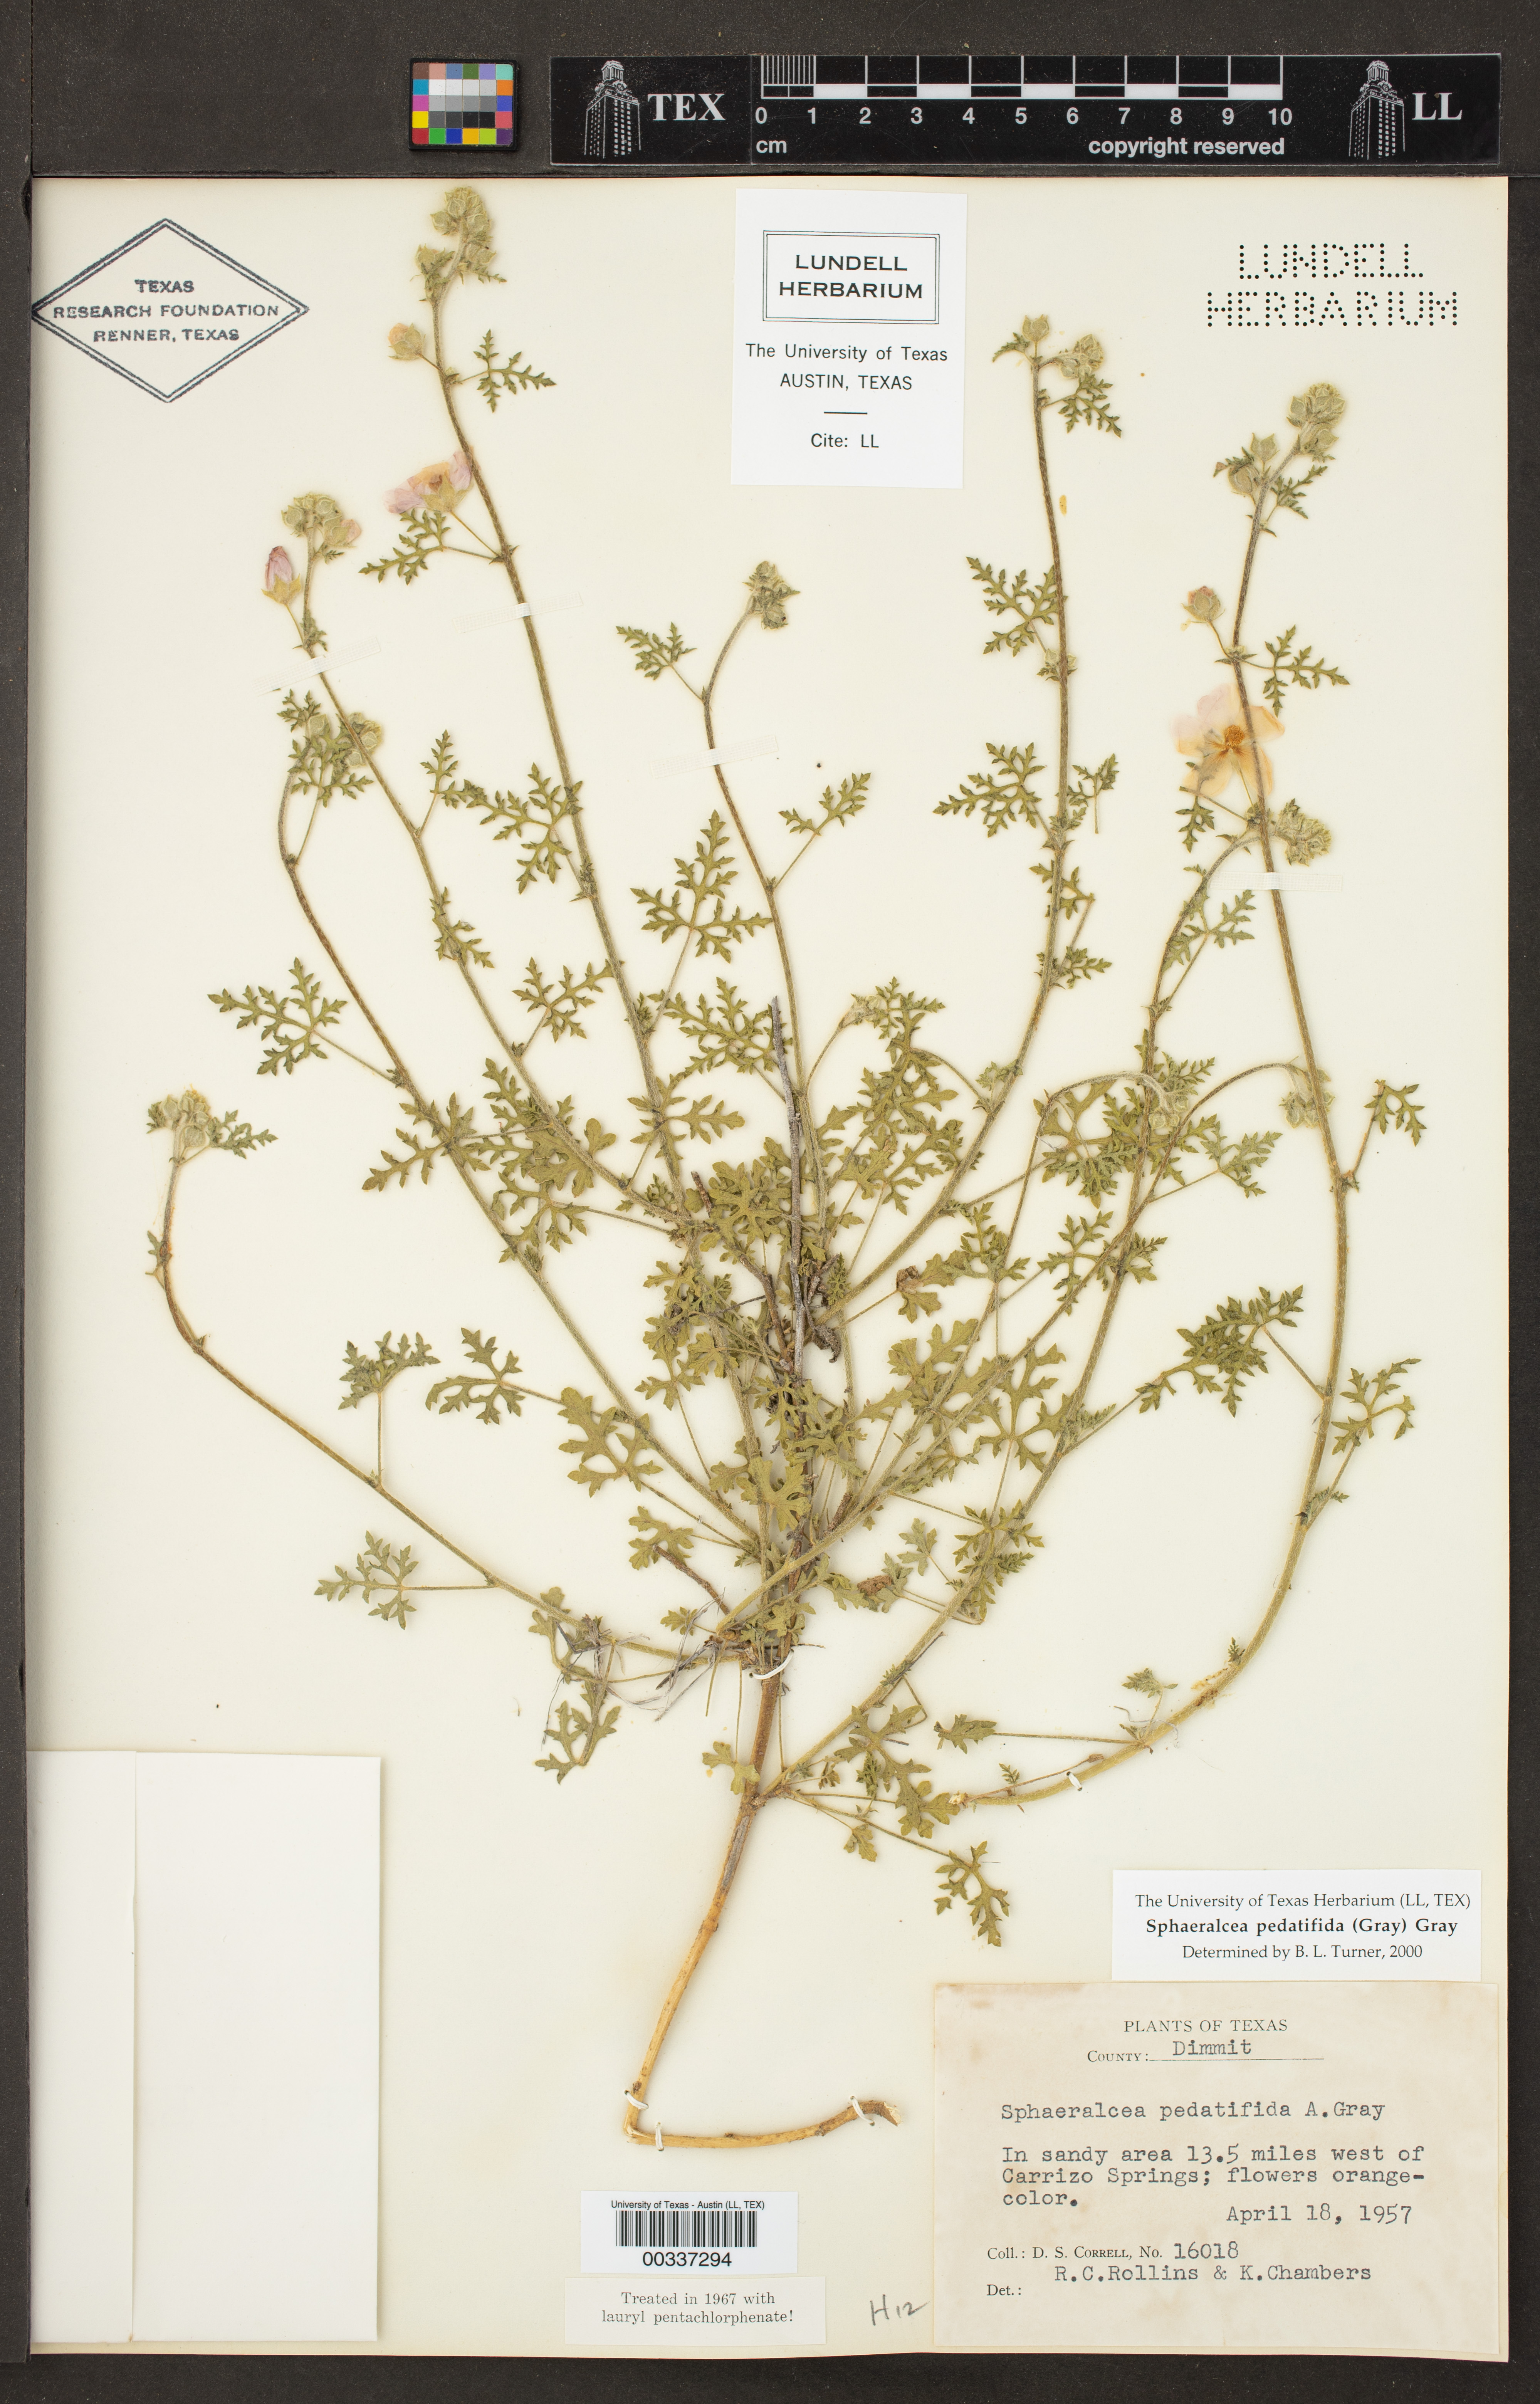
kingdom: Plantae
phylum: Tracheophyta
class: Magnoliopsida
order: Malvales
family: Malvaceae
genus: Sphaeralcea
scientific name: Sphaeralcea pedatifida
